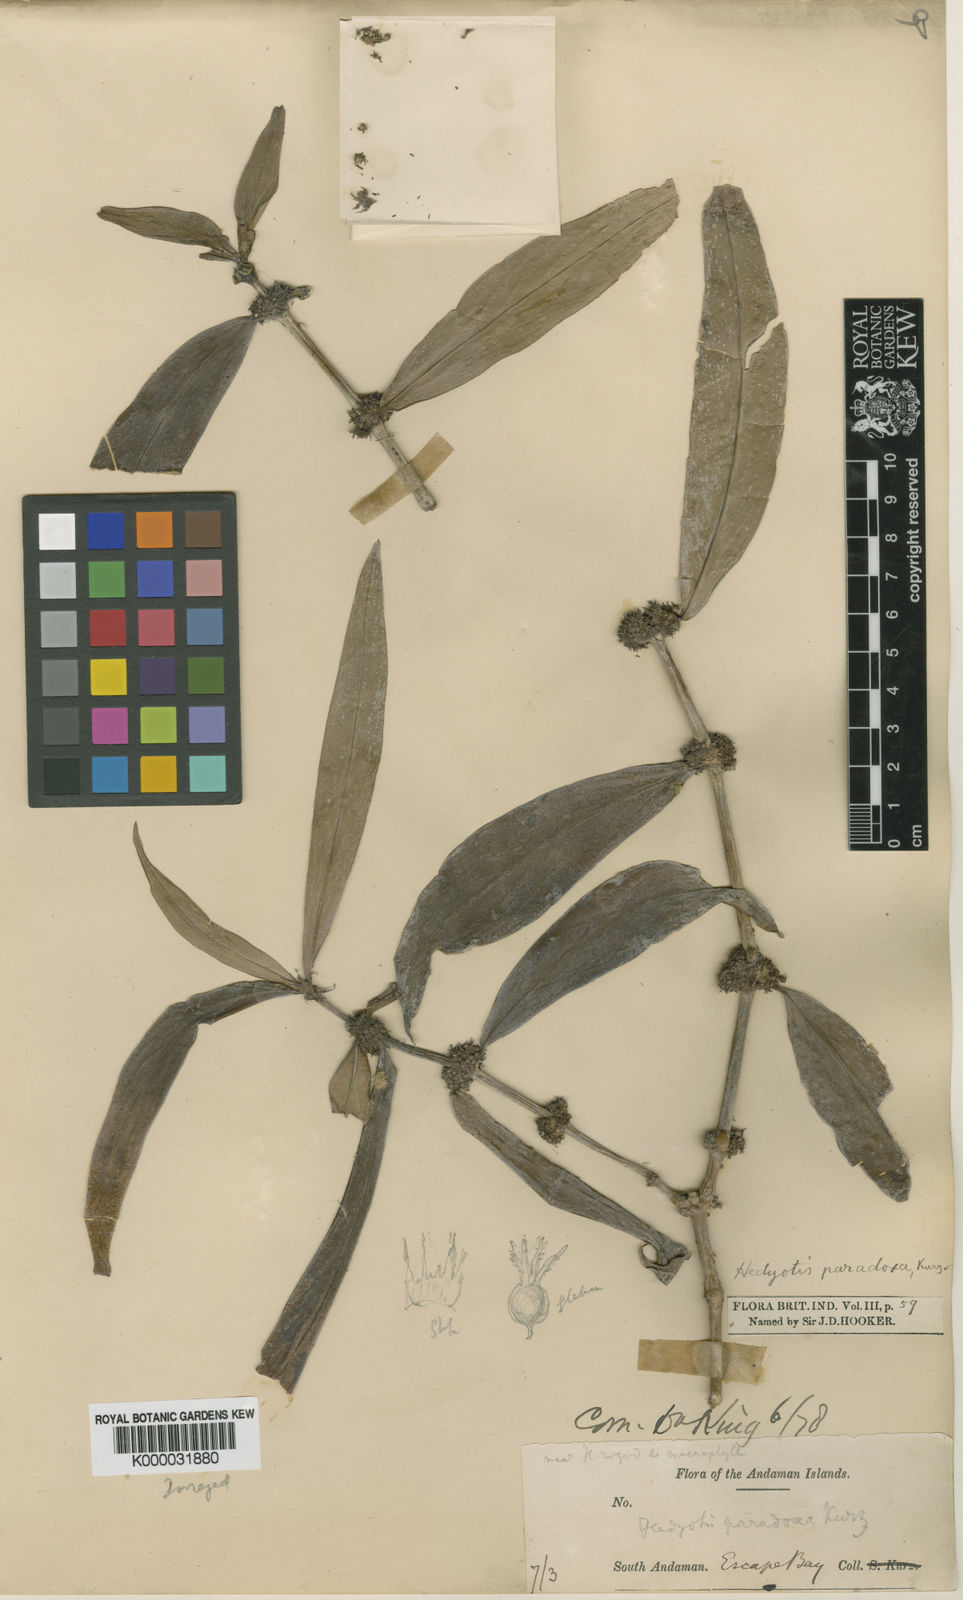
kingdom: Plantae
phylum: Tracheophyta
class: Magnoliopsida
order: Gentianales
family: Rubiaceae
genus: Exallage
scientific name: Exallage paradoxa
